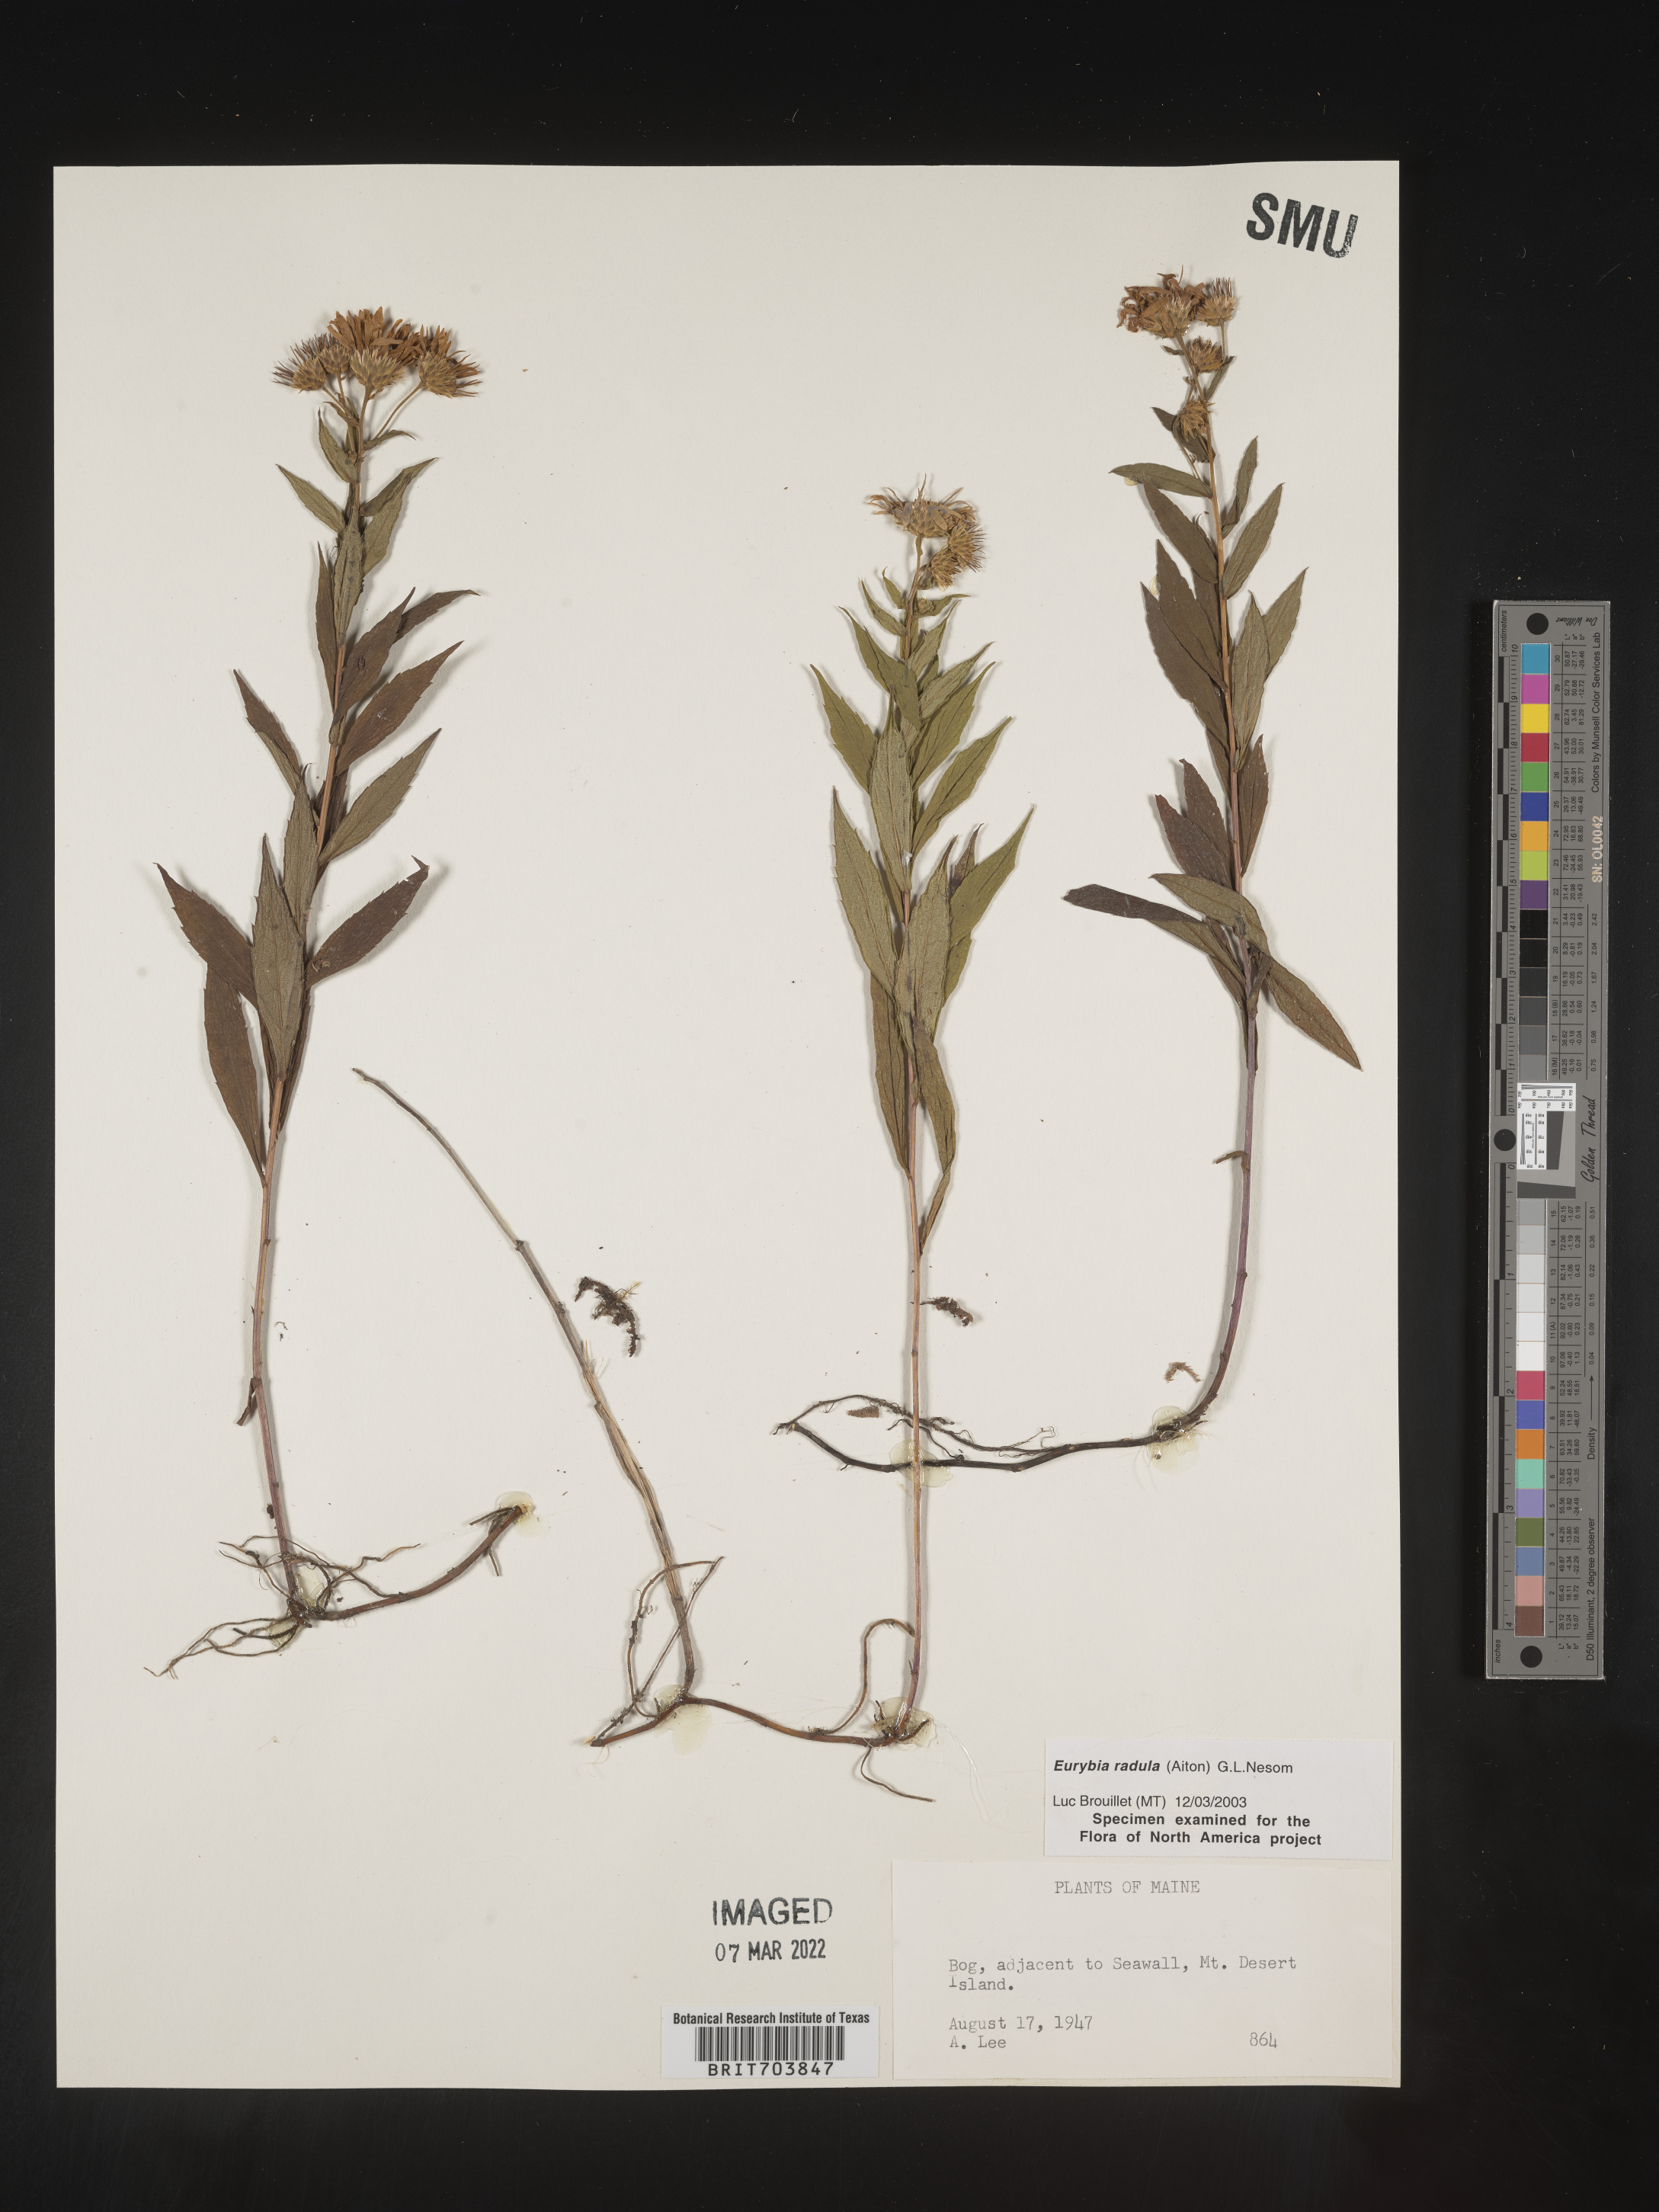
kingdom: Plantae
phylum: Tracheophyta
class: Magnoliopsida
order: Asterales
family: Asteraceae
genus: Eurybia
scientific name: Eurybia radula
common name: Low rough aster
